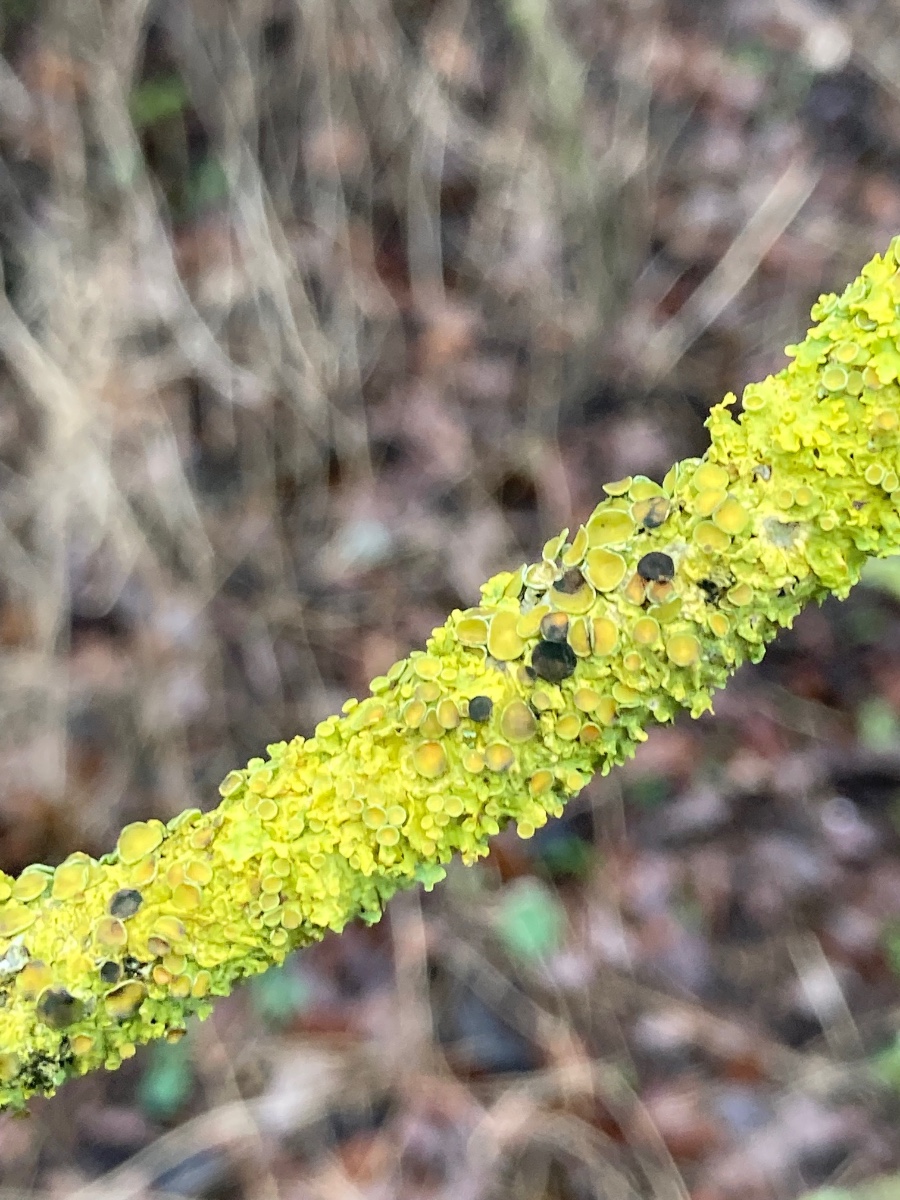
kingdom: Fungi
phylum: Ascomycota
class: Dothideomycetes
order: Mycosphaerellales
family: Teratosphaeriaceae
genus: Xanthoriicola
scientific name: Xanthoriicola physciae
